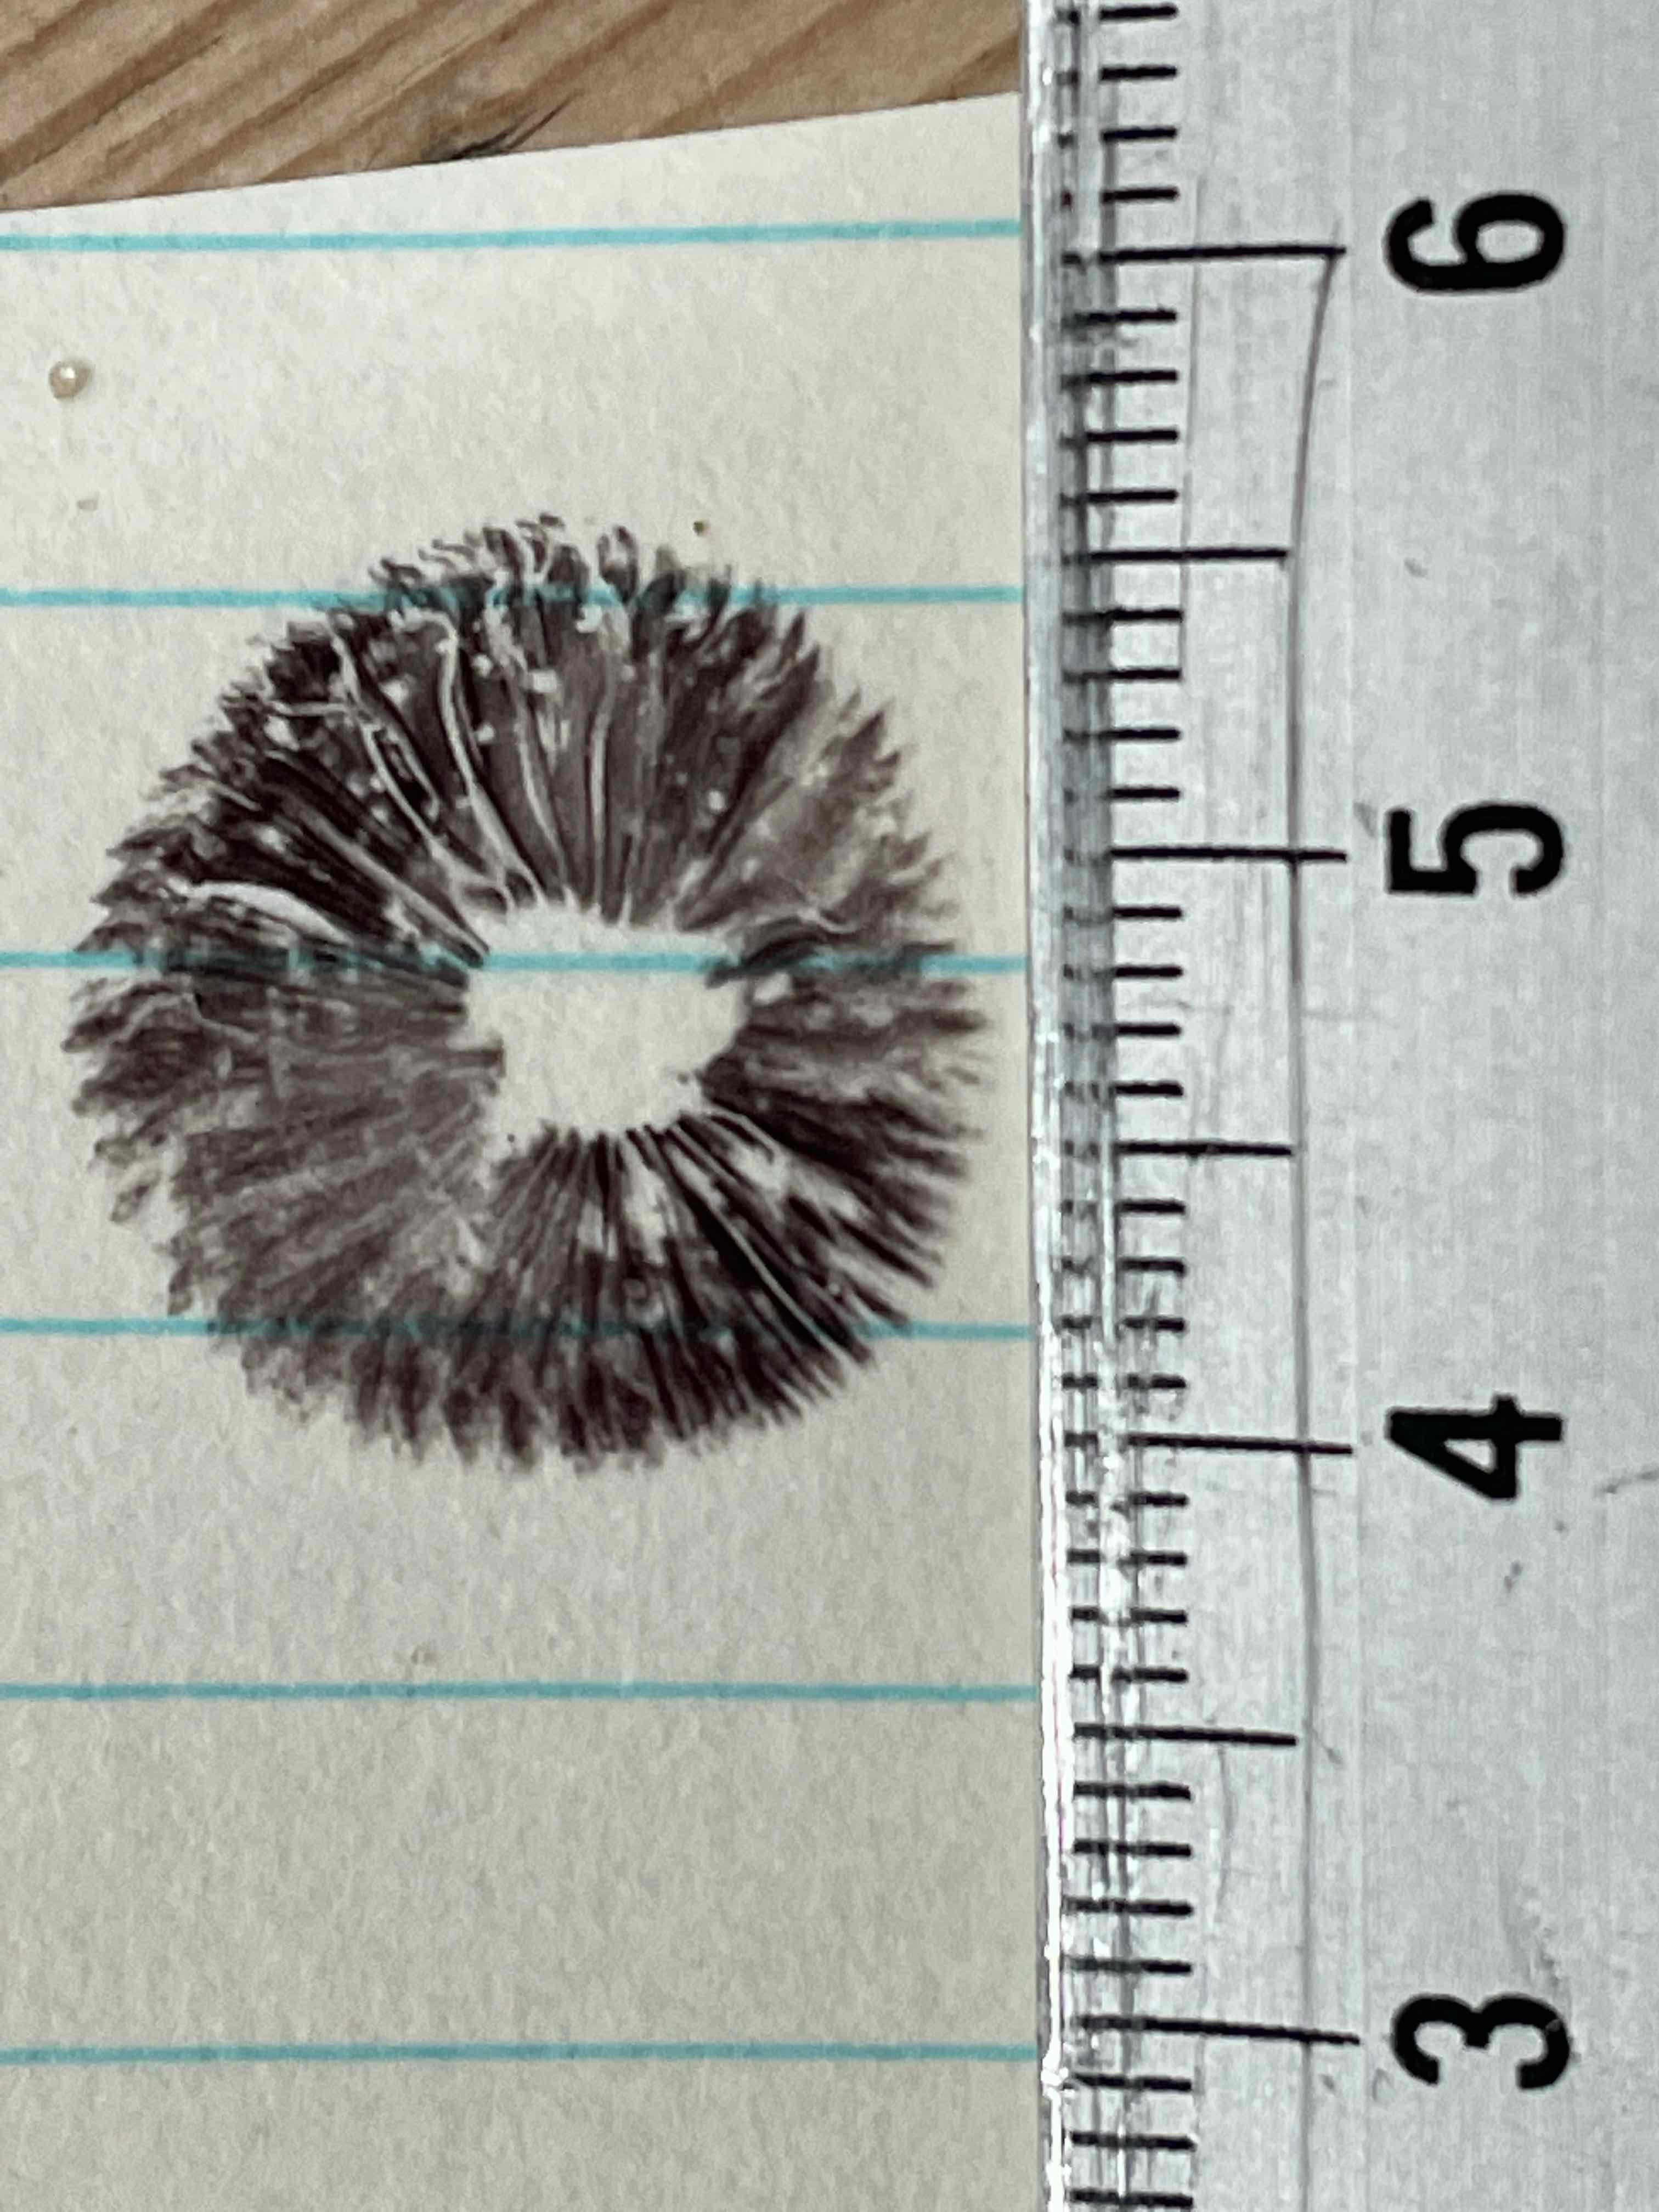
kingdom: Fungi
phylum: Basidiomycota
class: Agaricomycetes
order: Agaricales
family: Strophariaceae
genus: Deconica
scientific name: Deconica montana
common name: rødbrun stråhat
